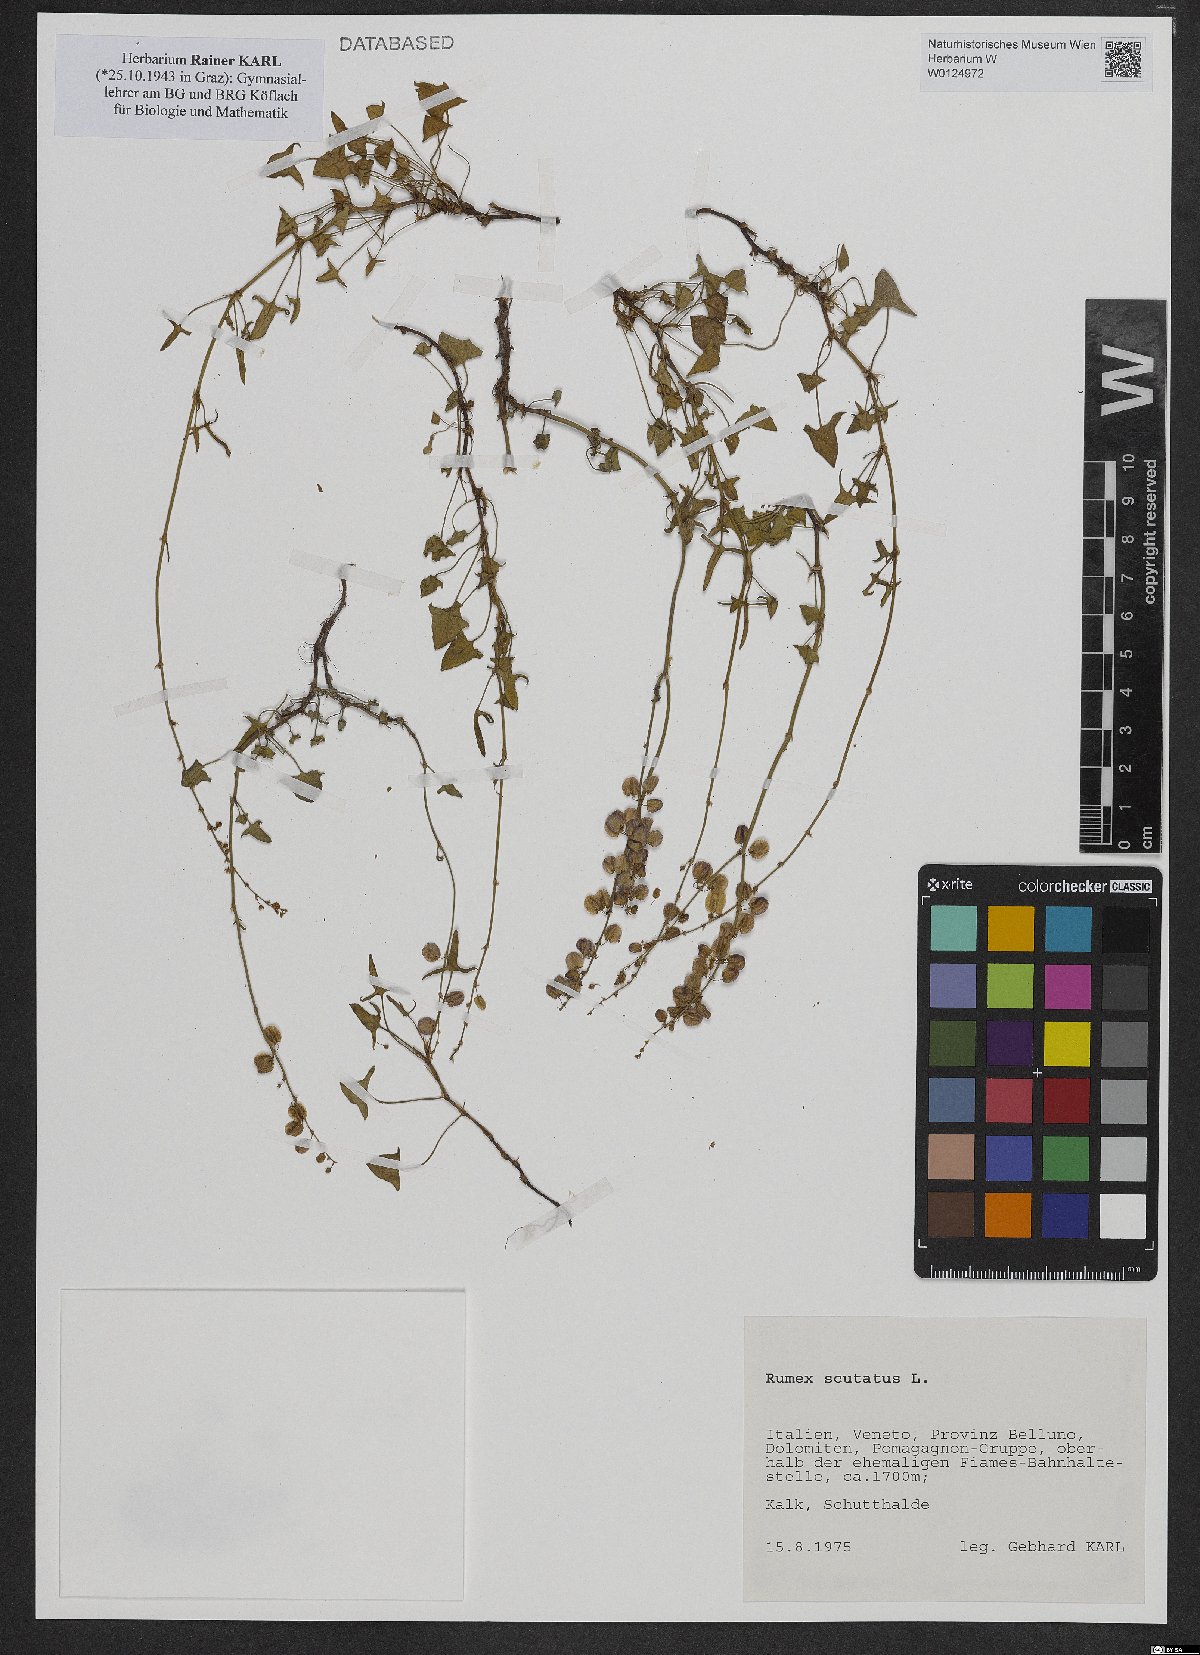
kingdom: Plantae
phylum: Tracheophyta
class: Magnoliopsida
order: Caryophyllales
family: Polygonaceae
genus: Rumex
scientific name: Rumex scutatus
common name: French sorrel
